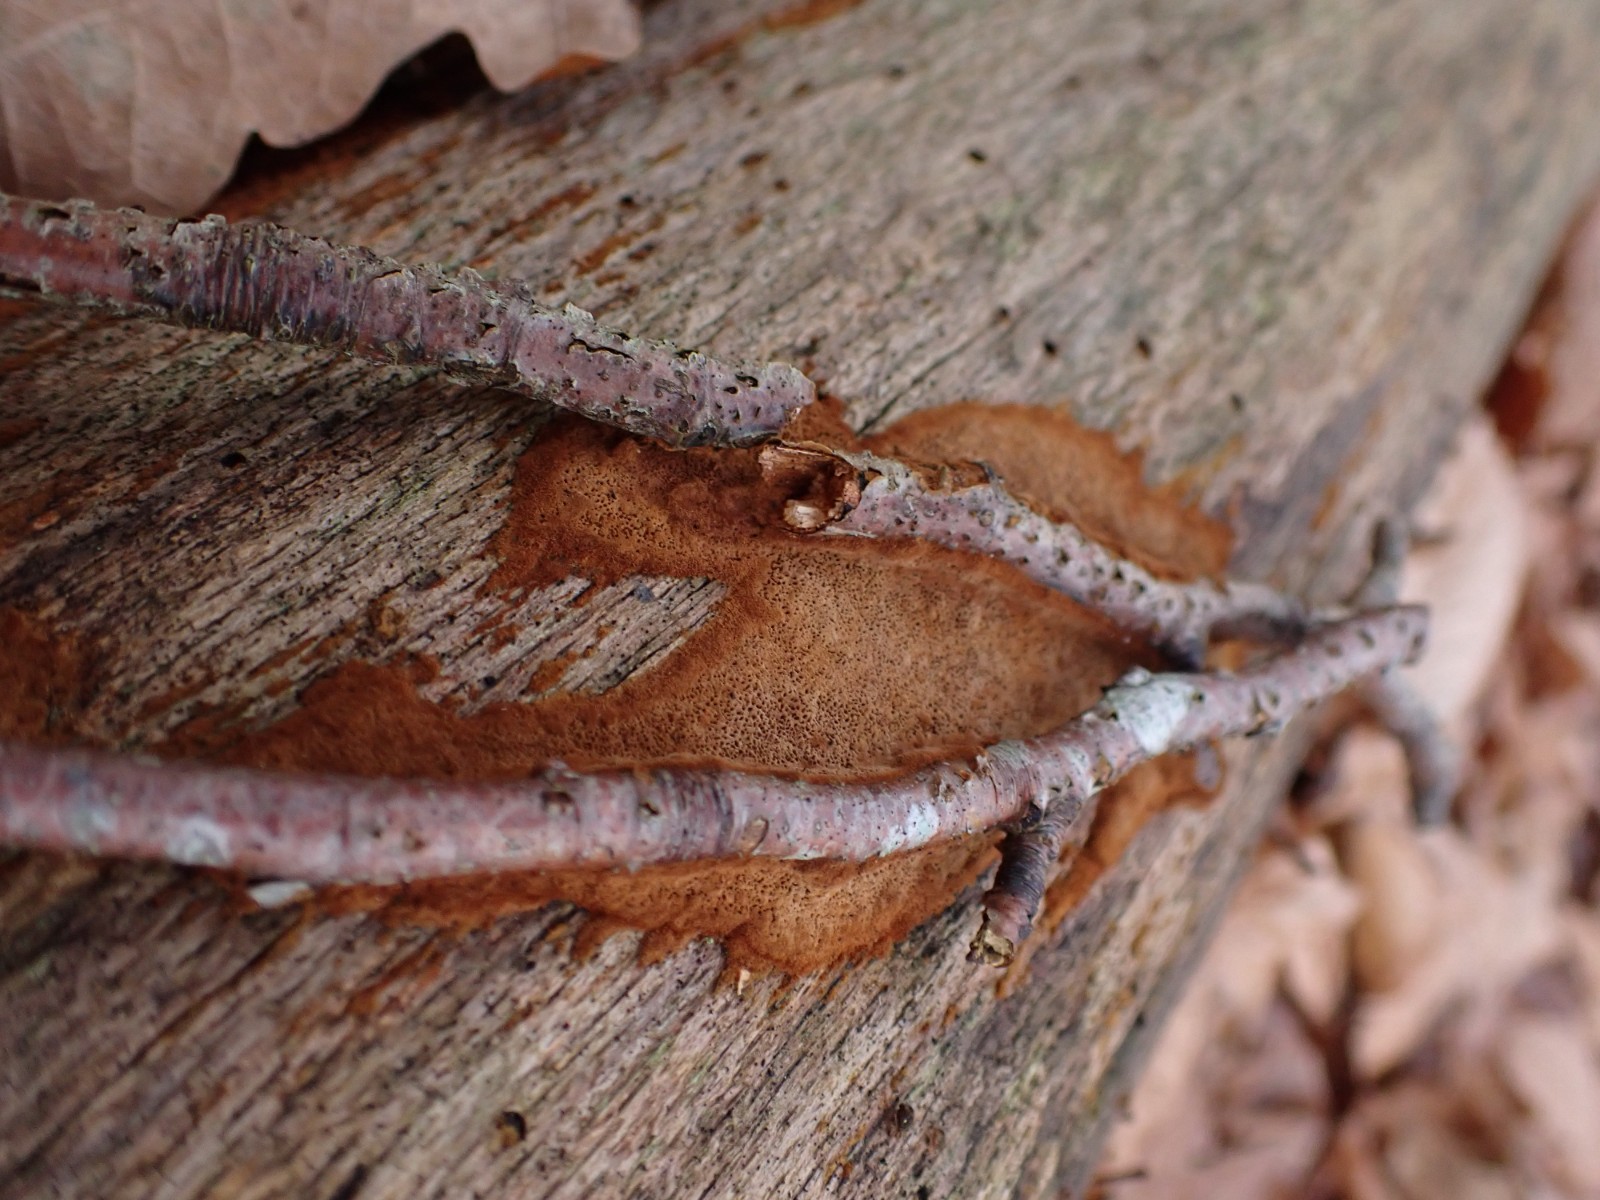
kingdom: Fungi
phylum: Basidiomycota
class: Agaricomycetes
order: Hymenochaetales
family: Hymenochaetaceae
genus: Fuscoporia
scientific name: Fuscoporia
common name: Ildporesvamp
